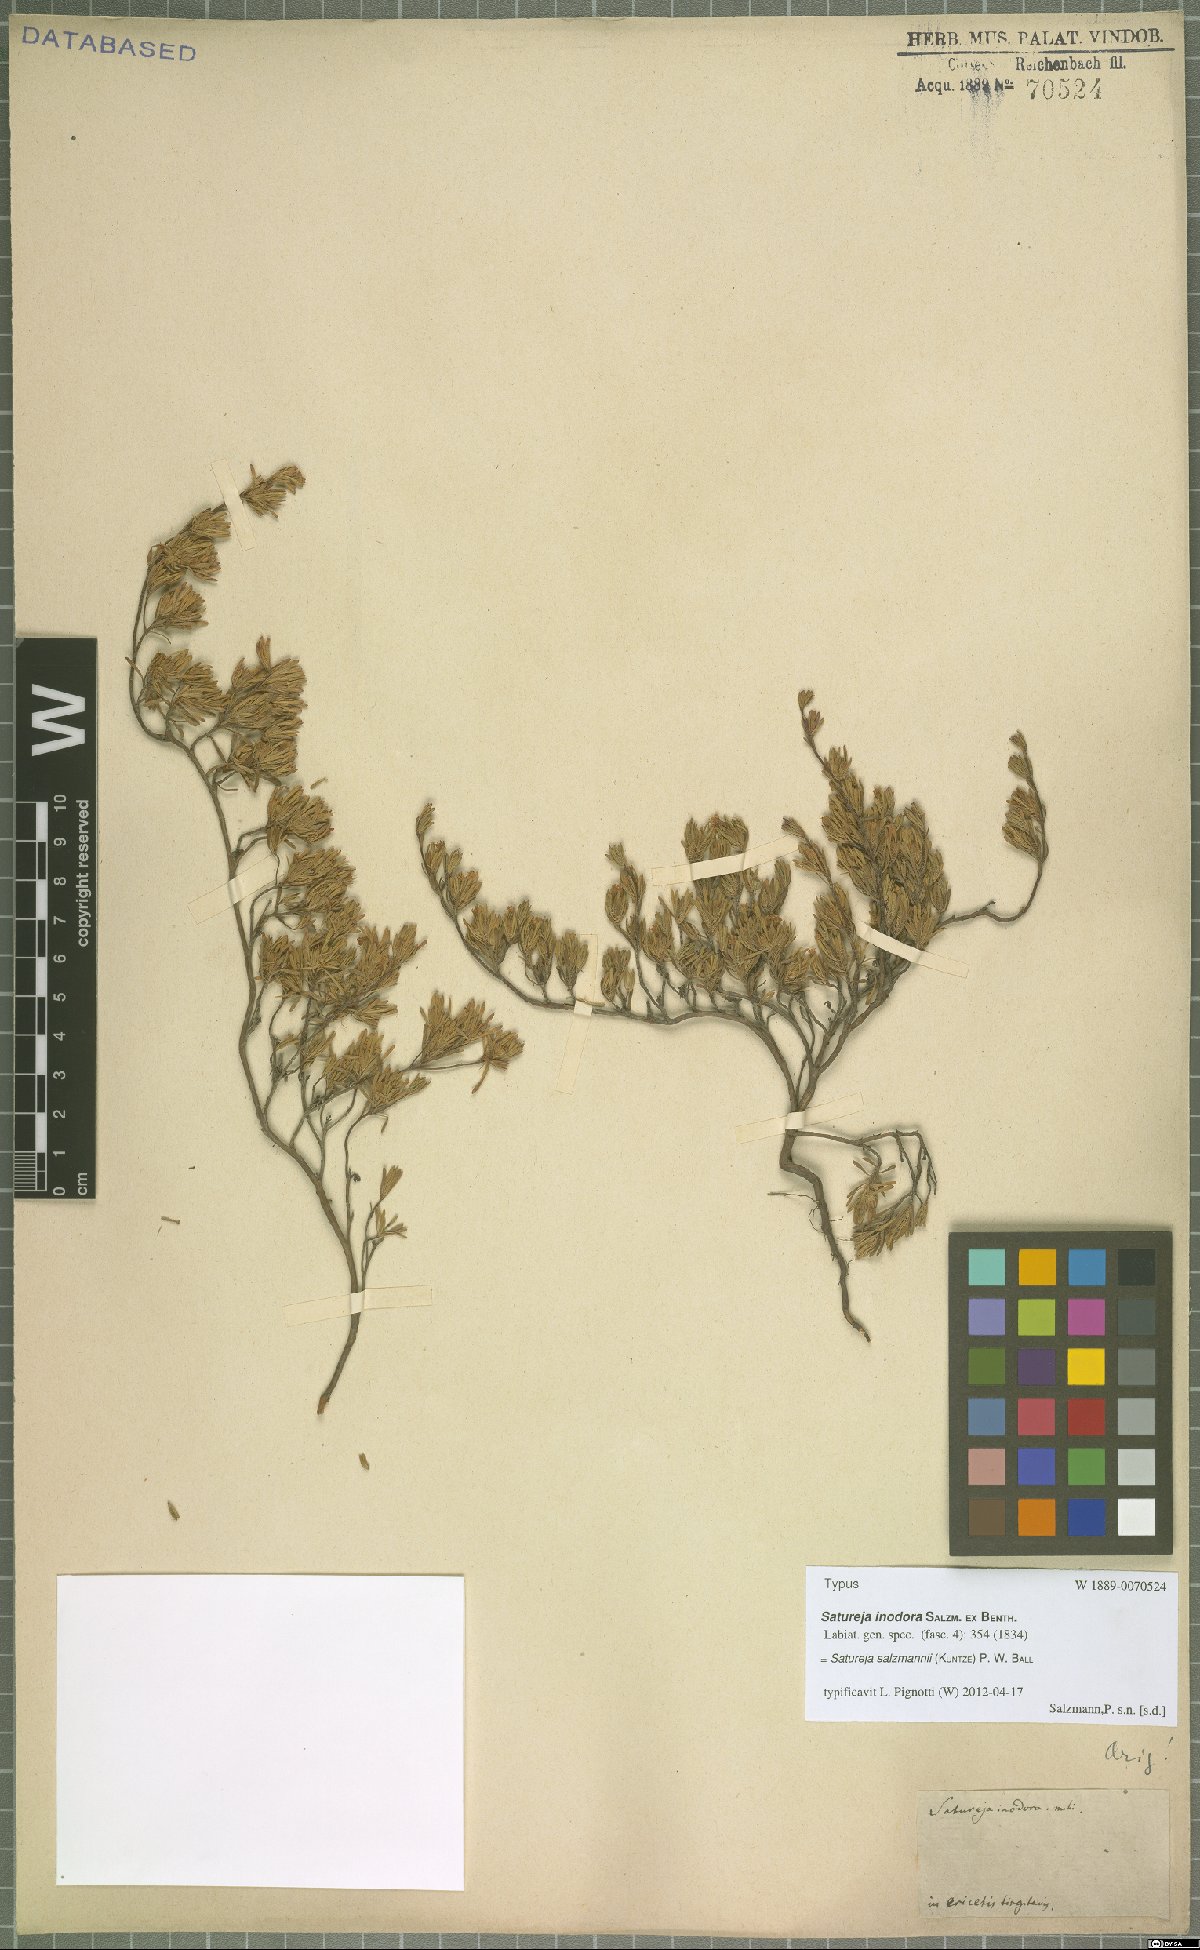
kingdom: Plantae
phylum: Tracheophyta
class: Magnoliopsida
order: Lamiales
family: Lamiaceae
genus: Satureja
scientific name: Satureja salzmannii
